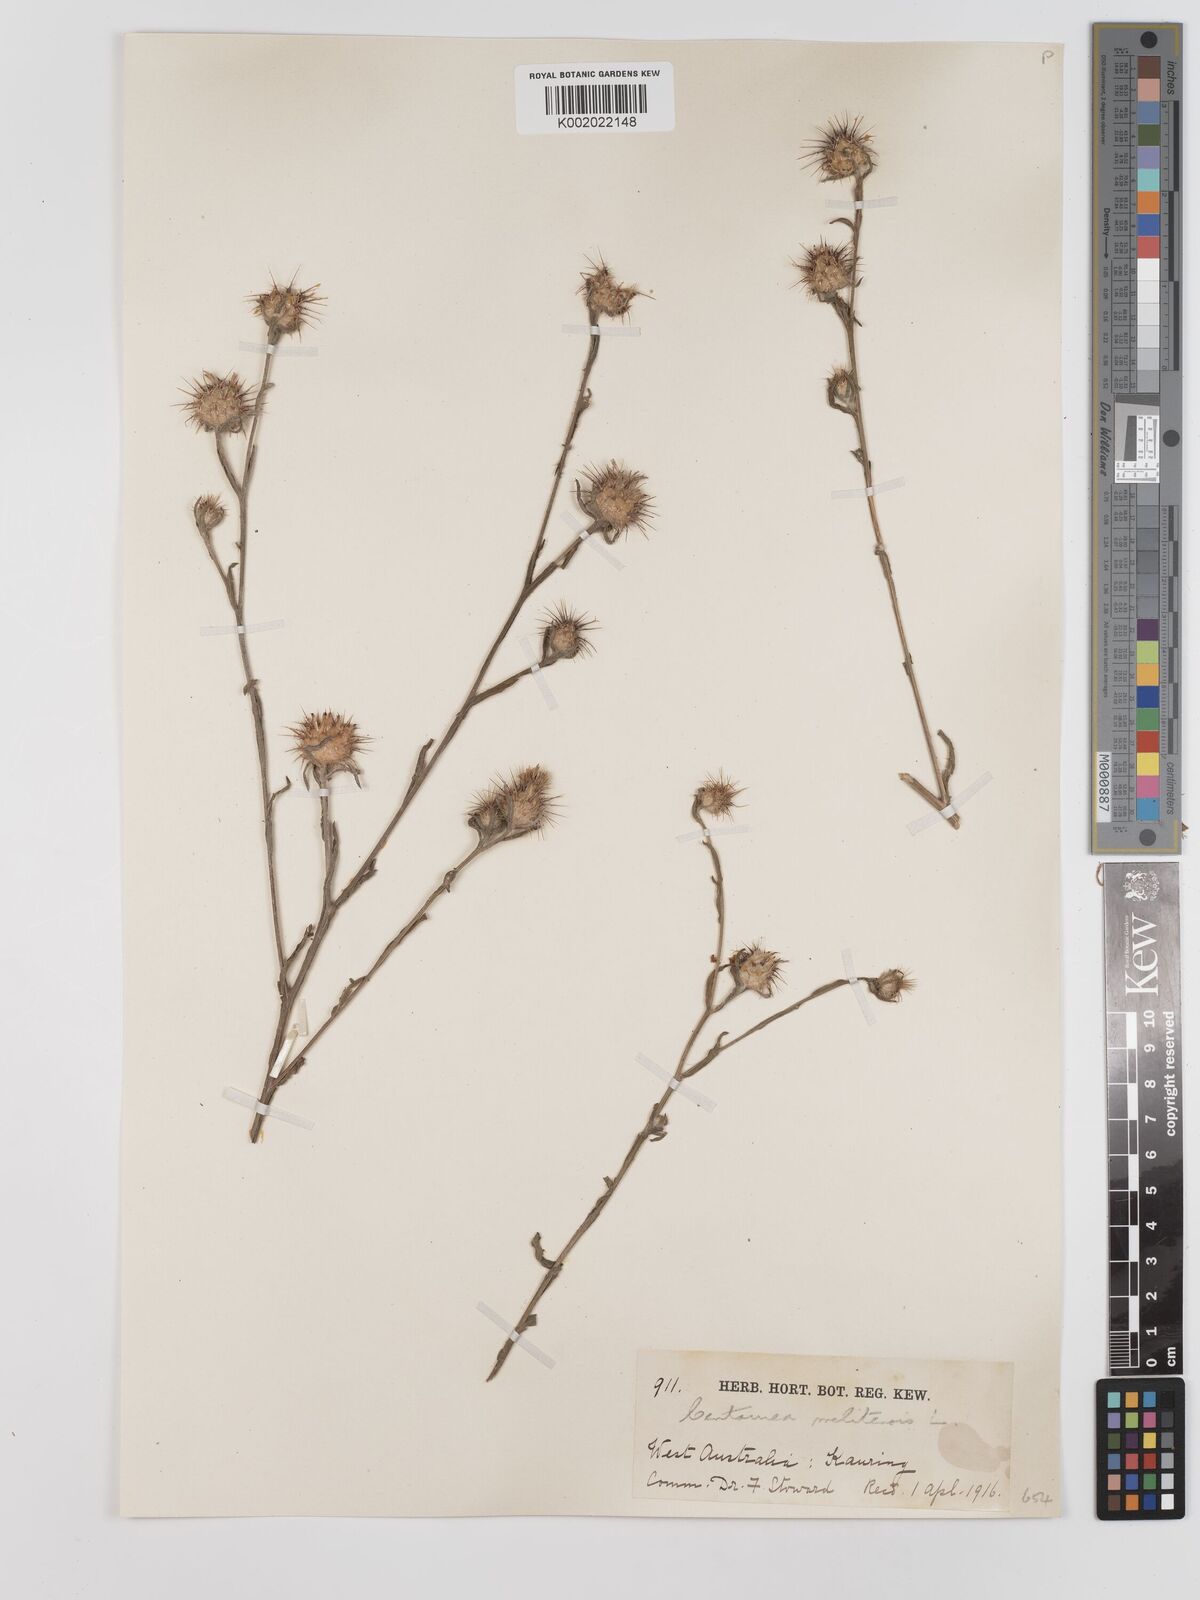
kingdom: Plantae
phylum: Tracheophyta
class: Magnoliopsida
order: Asterales
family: Asteraceae
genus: Centaurea
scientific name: Centaurea melitensis
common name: Maltese star-thistle
